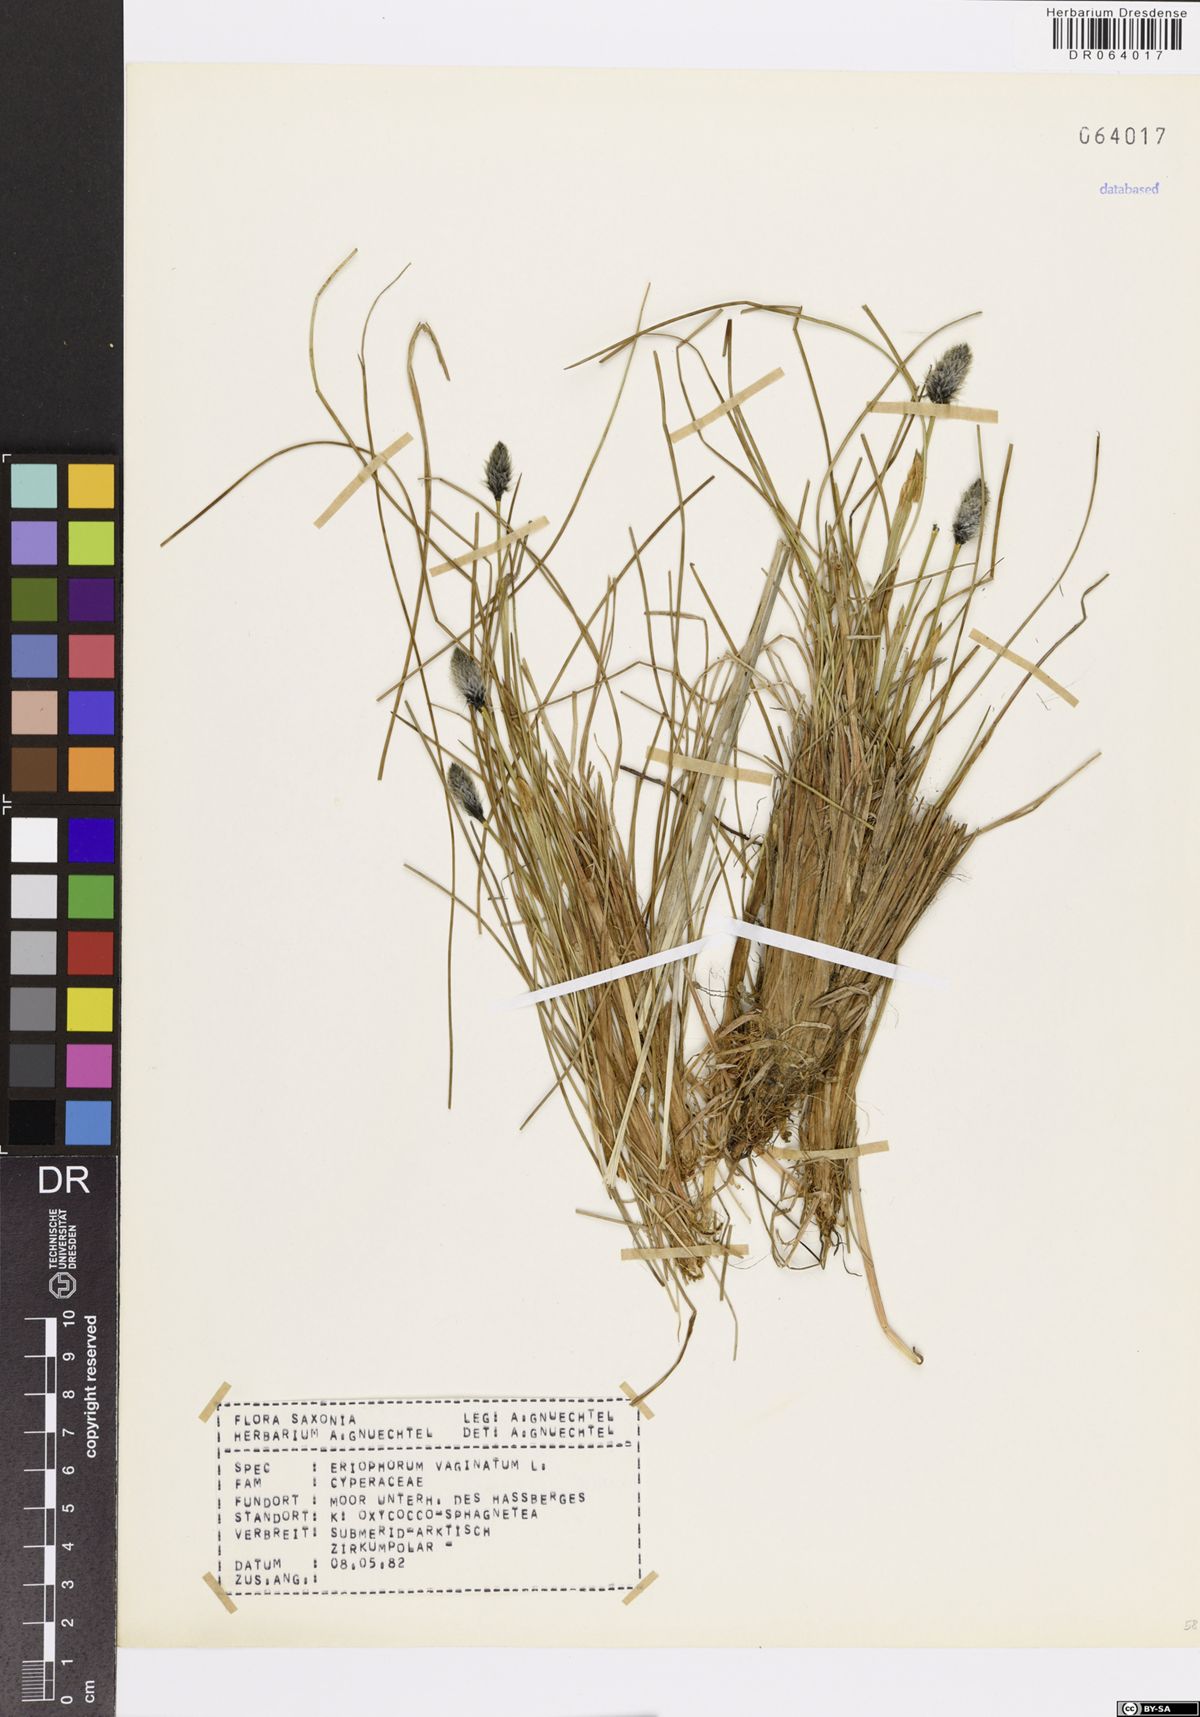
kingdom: Plantae
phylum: Tracheophyta
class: Liliopsida
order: Poales
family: Cyperaceae
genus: Eriophorum
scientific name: Eriophorum vaginatum
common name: Hare's-tail cottongrass
